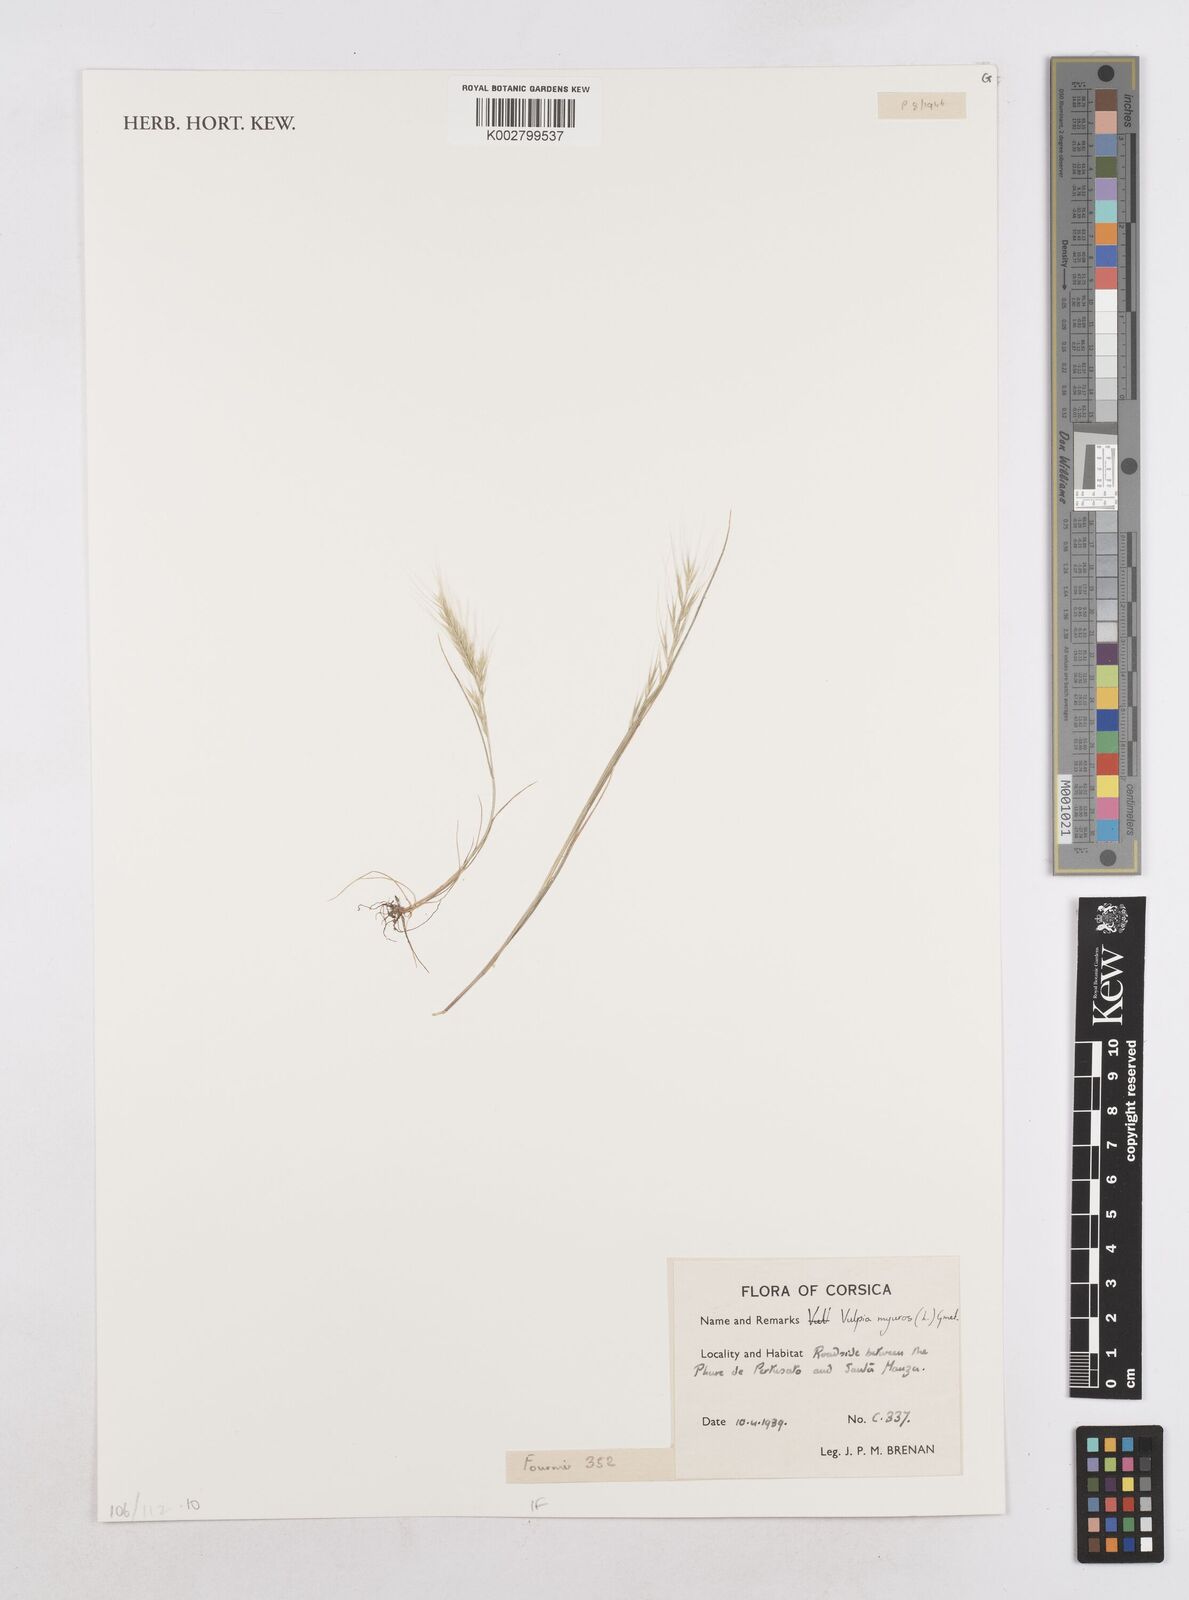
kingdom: Plantae
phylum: Tracheophyta
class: Liliopsida
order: Poales
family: Poaceae
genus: Festuca
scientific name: Festuca myuros
